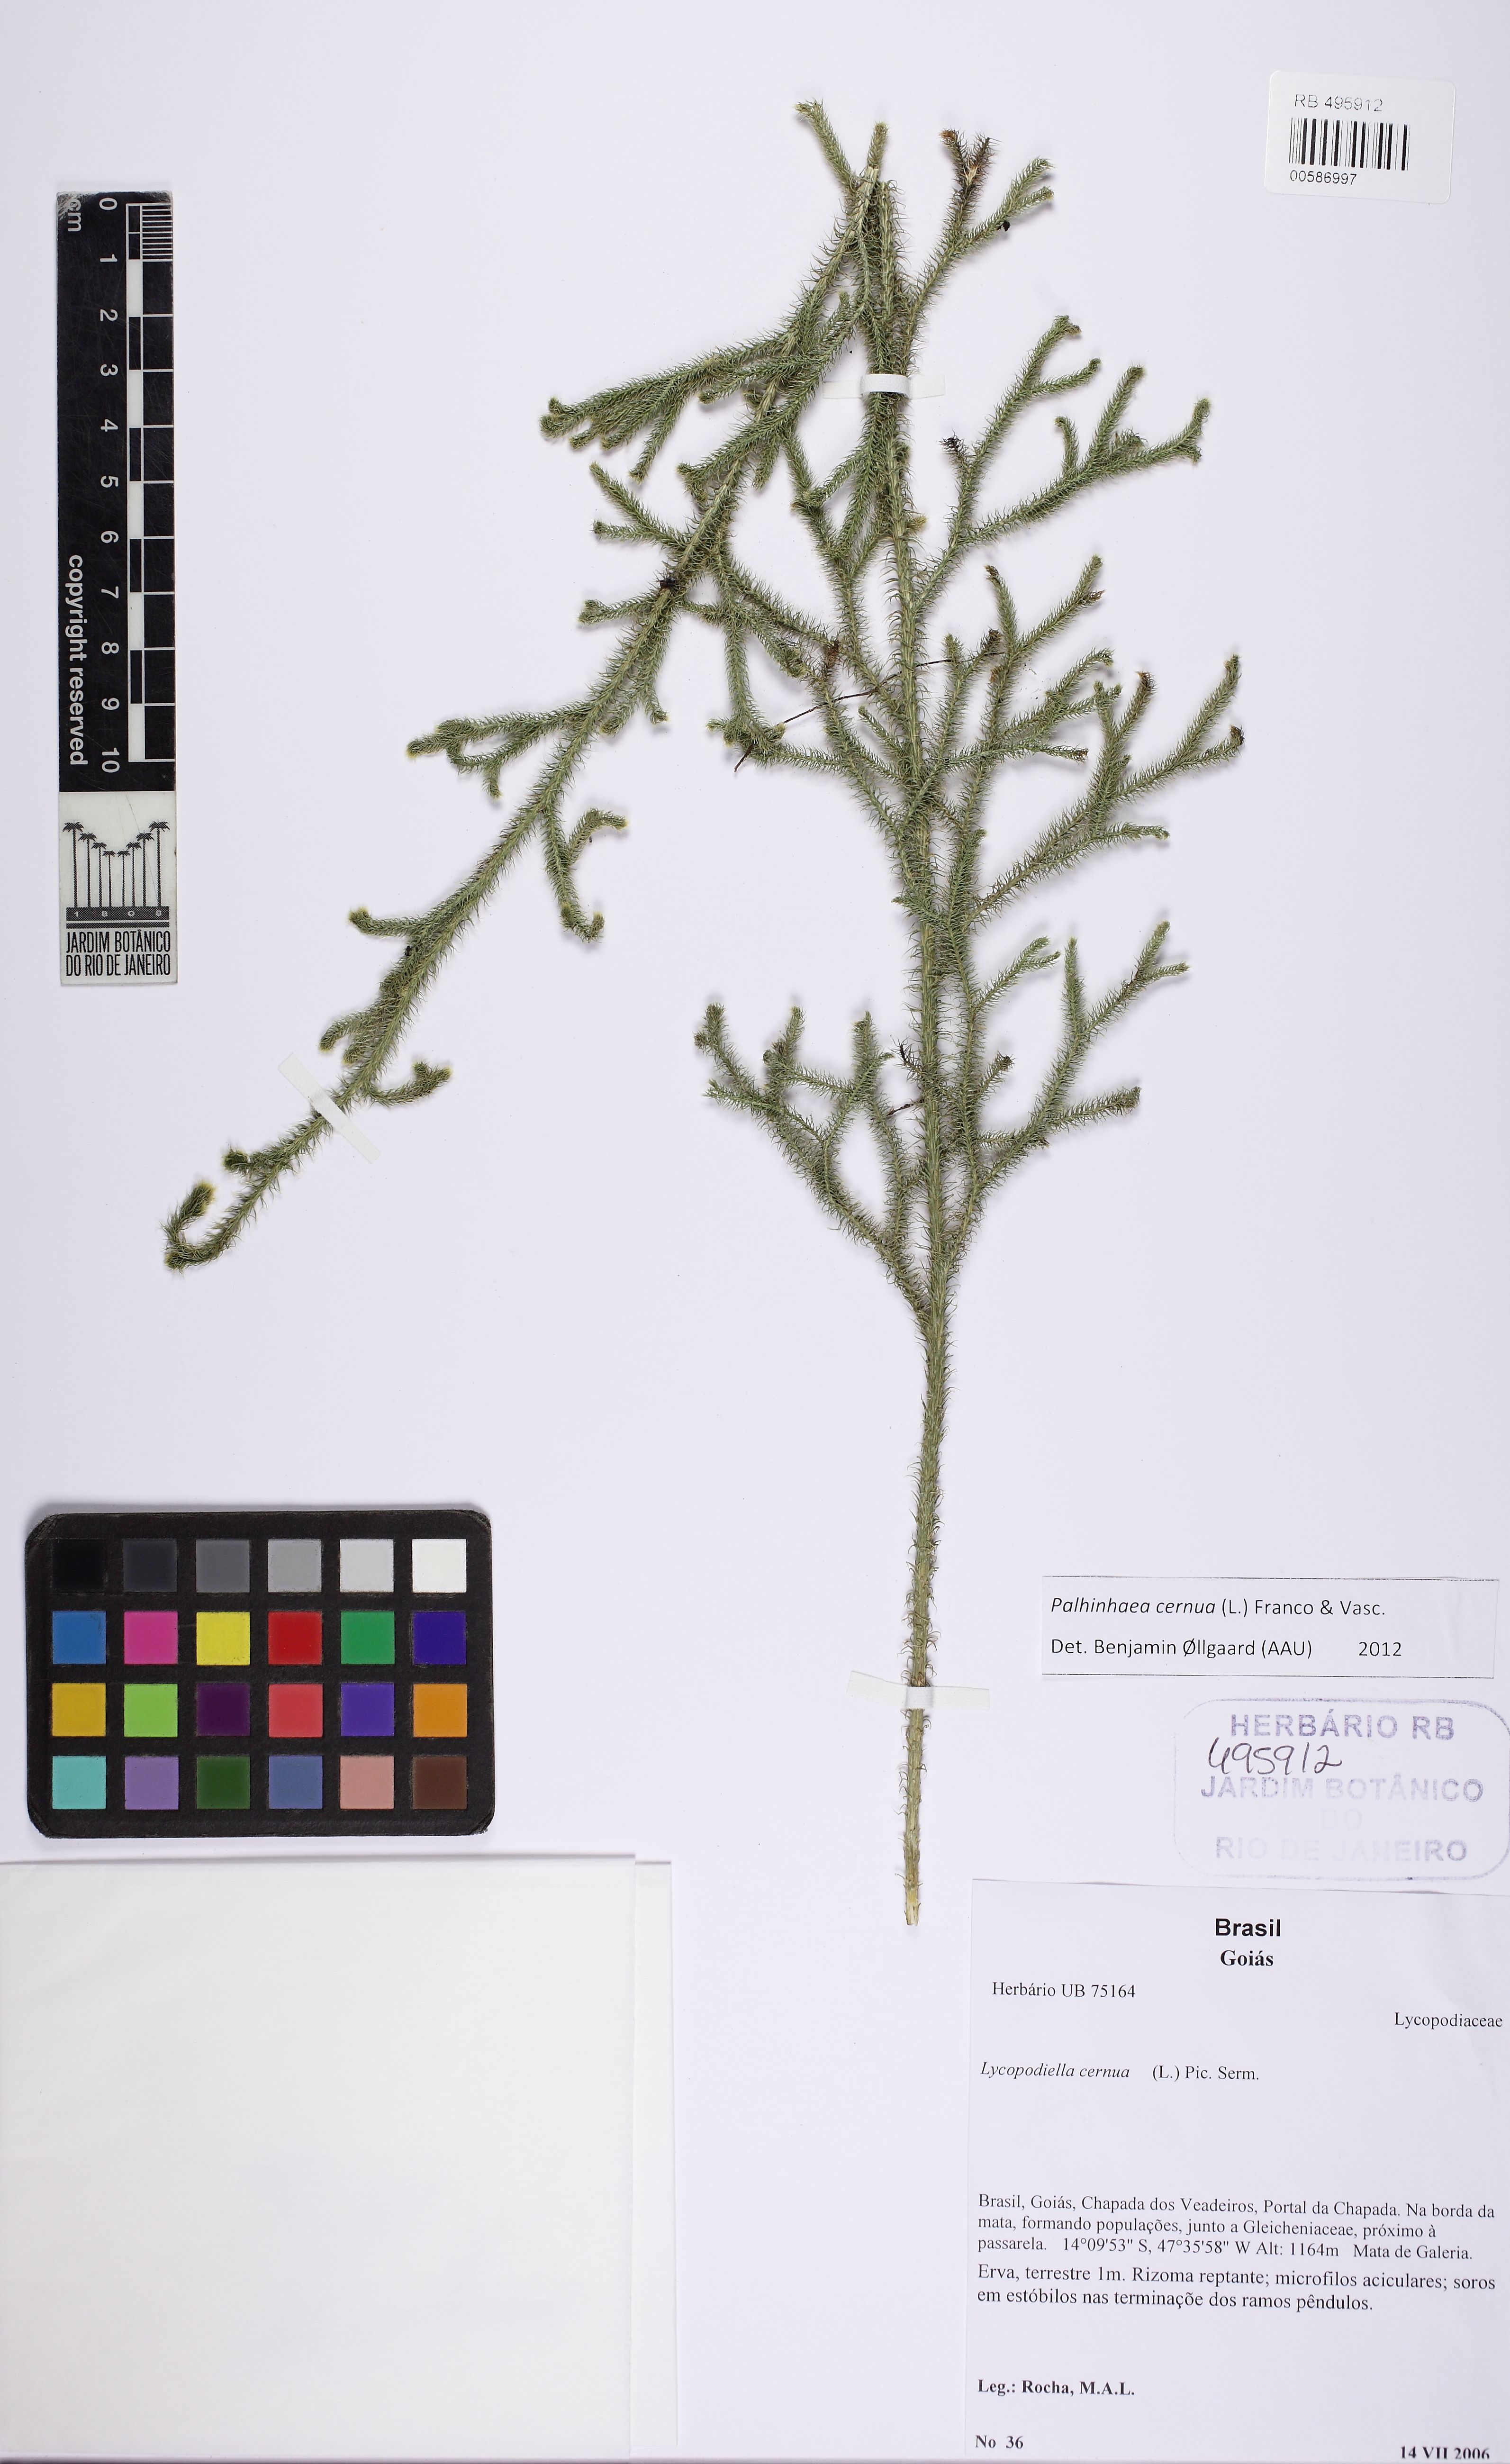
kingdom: Plantae
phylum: Tracheophyta
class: Lycopodiopsida
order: Lycopodiales
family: Lycopodiaceae
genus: Palhinhaea
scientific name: Palhinhaea cernua
